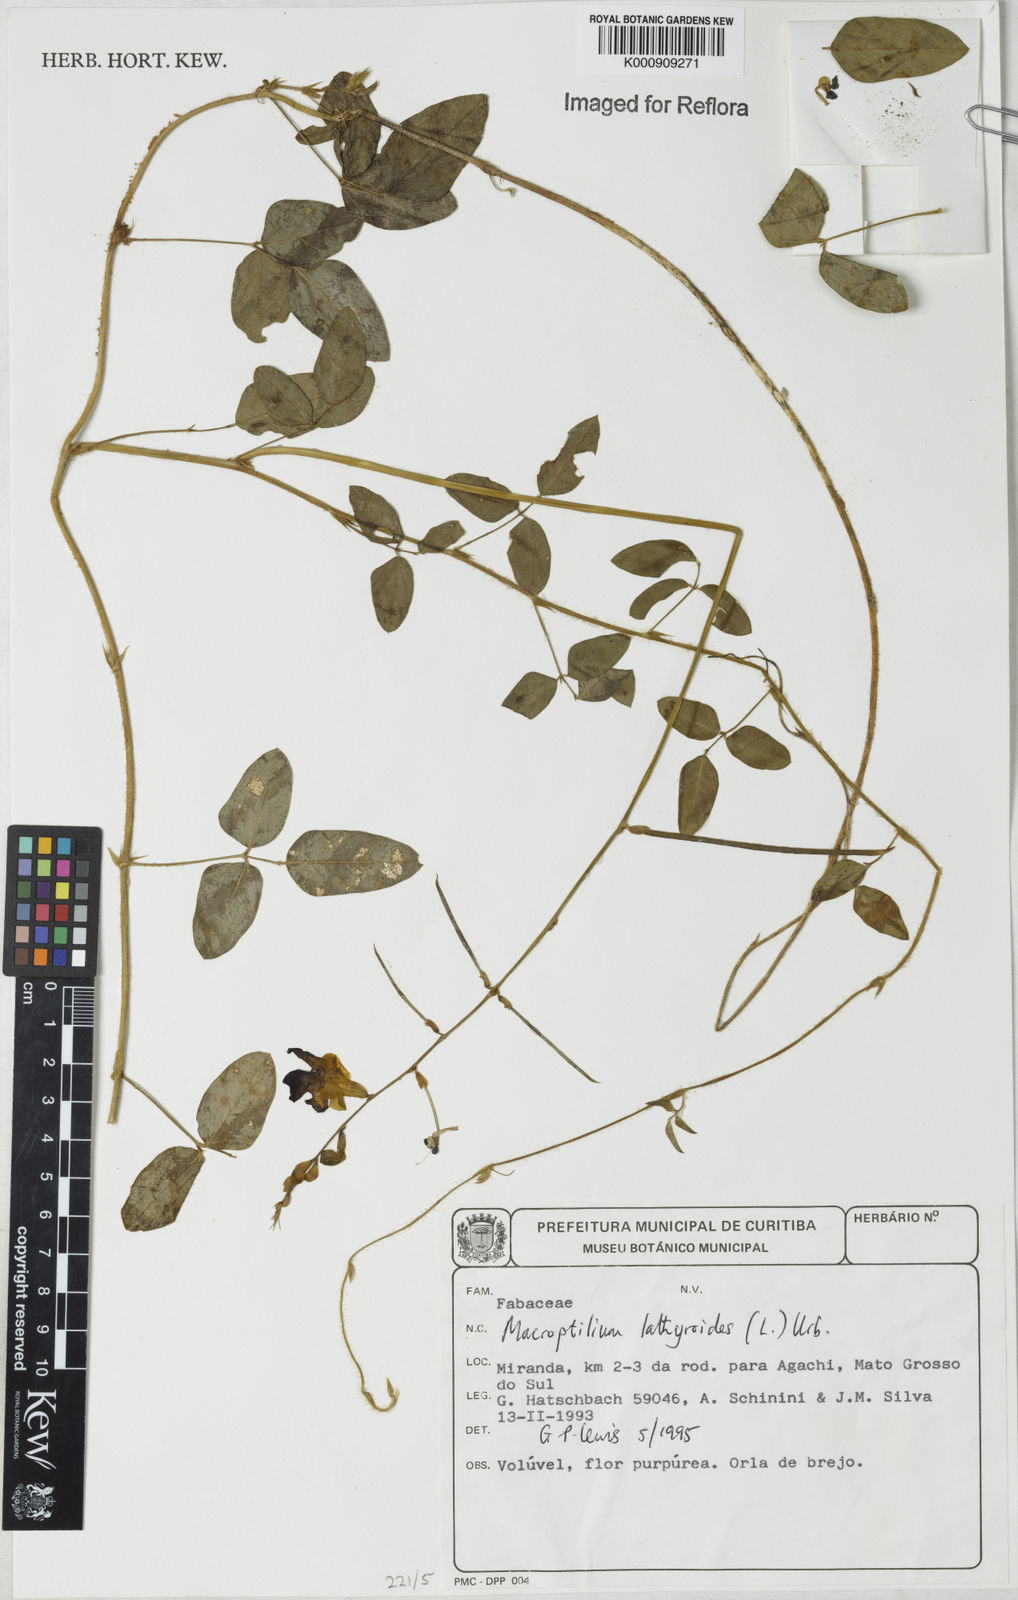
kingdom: Plantae
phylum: Tracheophyta
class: Magnoliopsida
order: Fabales
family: Fabaceae
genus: Macroptilium
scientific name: Macroptilium lathyroides
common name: Wild bushbean
